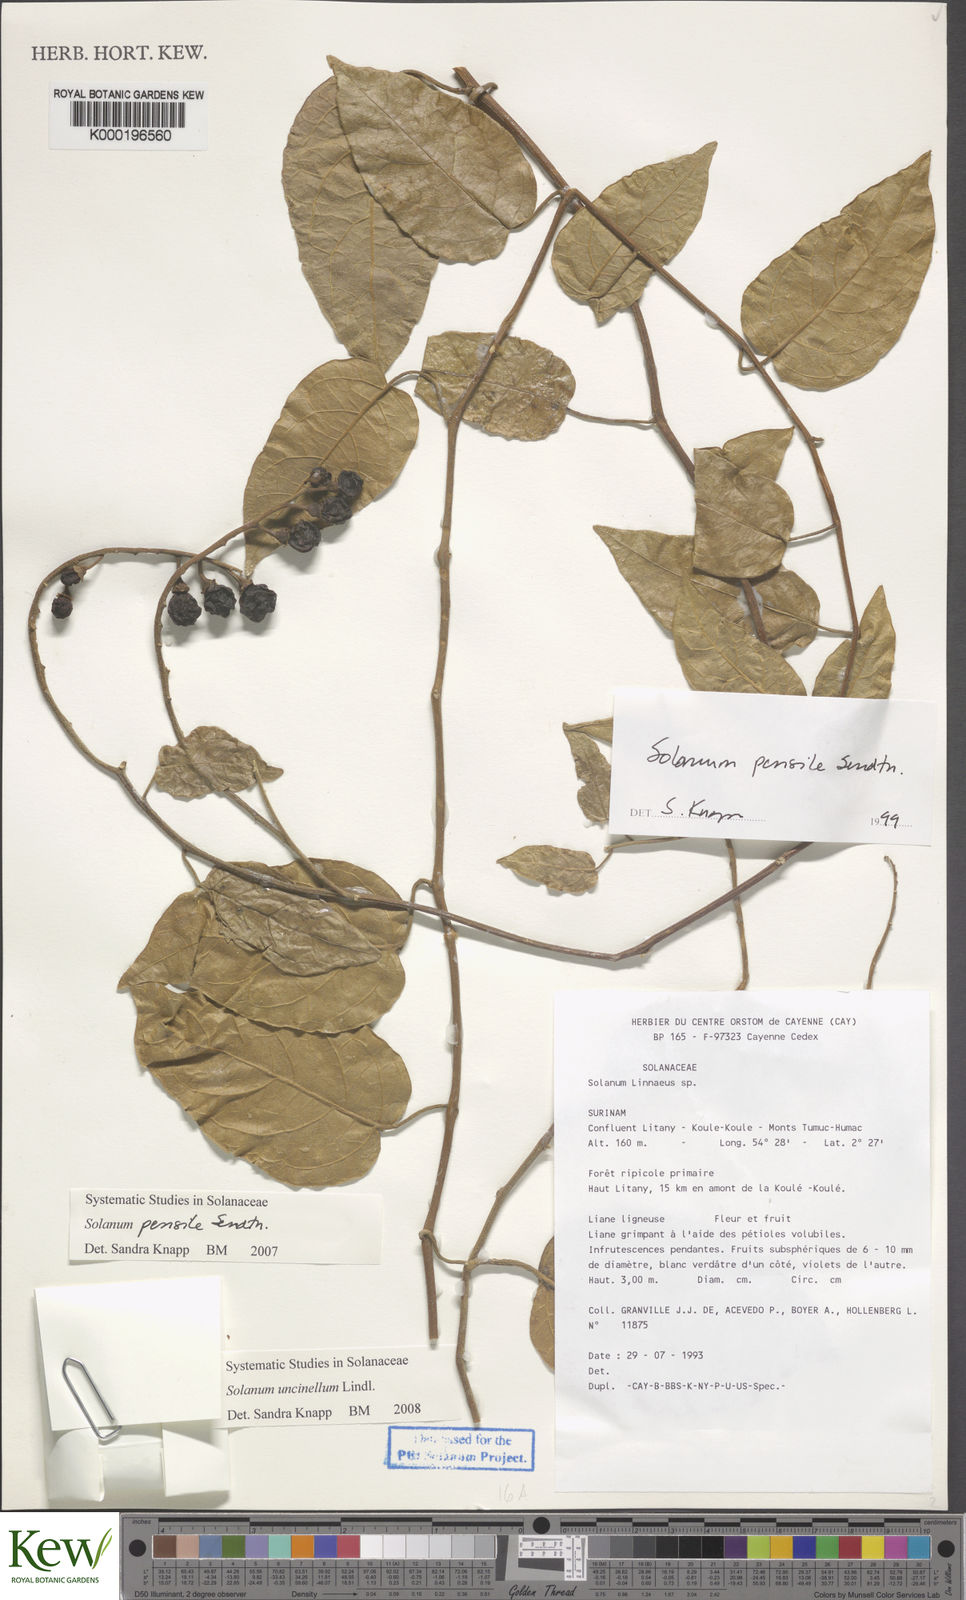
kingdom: Plantae
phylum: Tracheophyta
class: Magnoliopsida
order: Solanales
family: Solanaceae
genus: Solanum
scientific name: Solanum uncinellum
